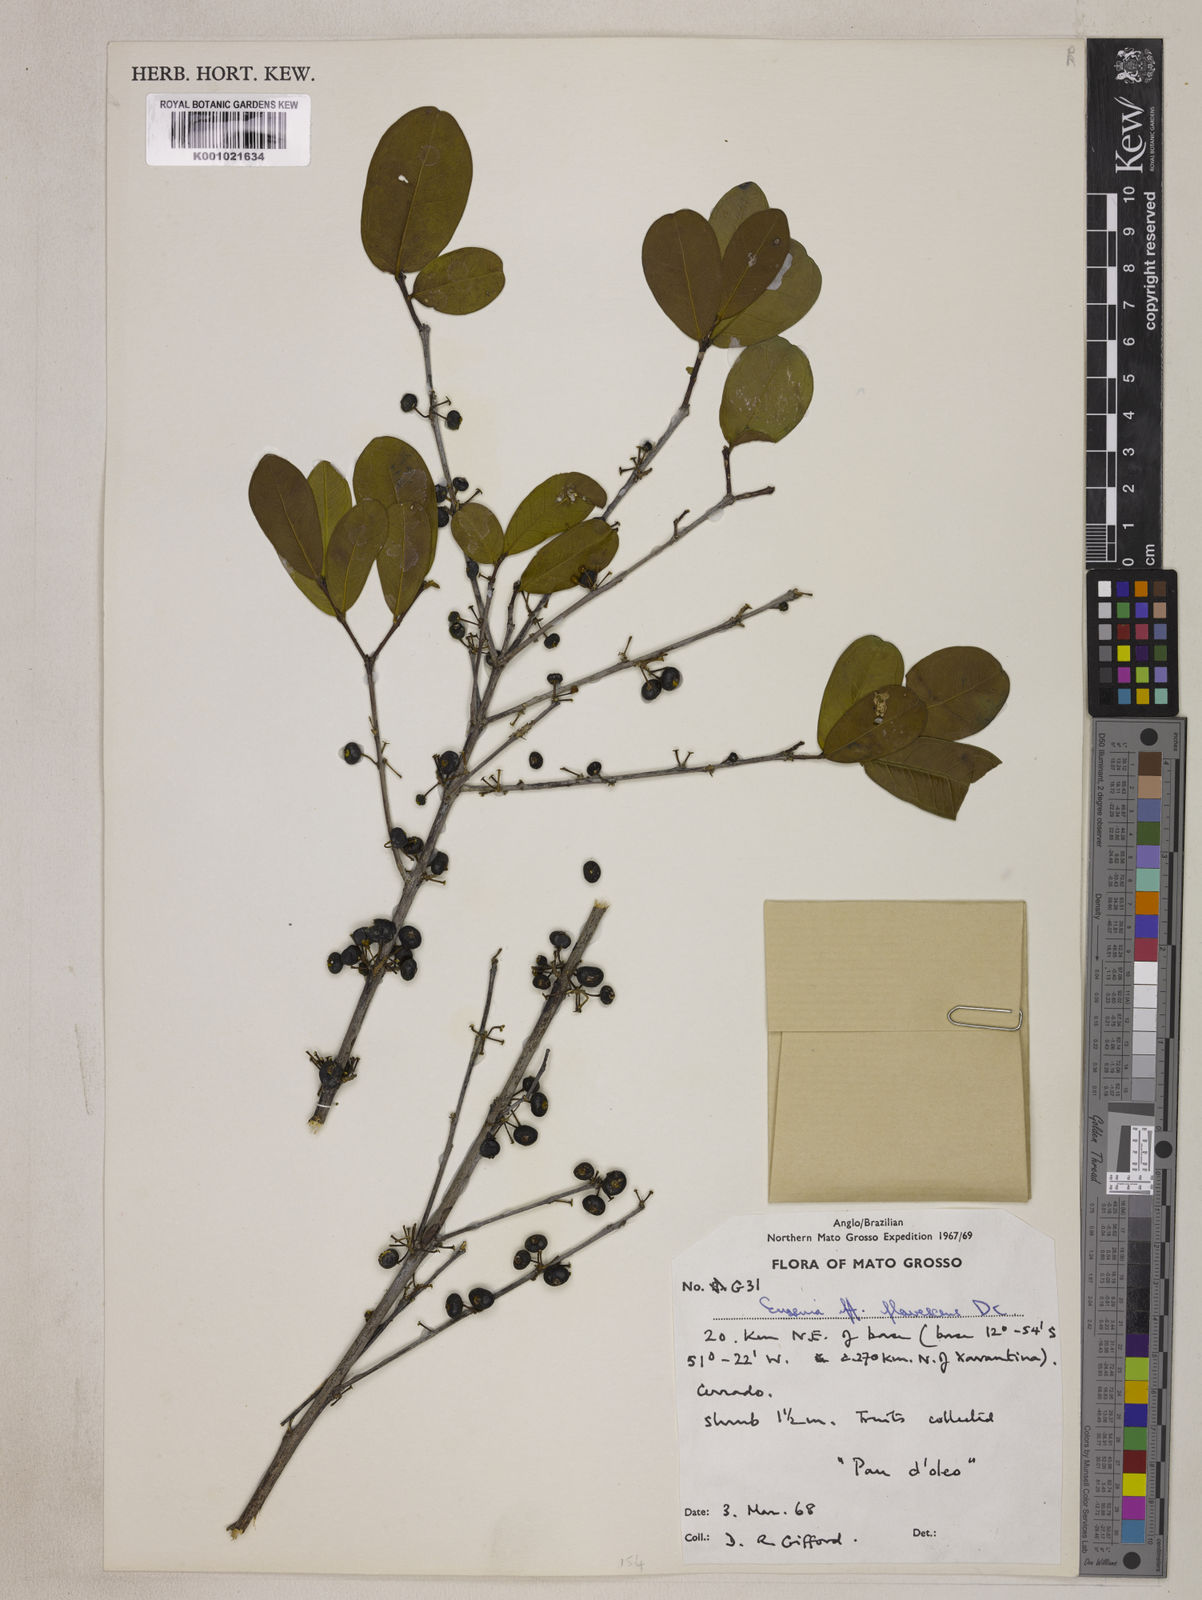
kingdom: Plantae
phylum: Tracheophyta
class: Magnoliopsida
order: Myrtales
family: Myrtaceae
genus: Eugenia
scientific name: Eugenia flavescens
